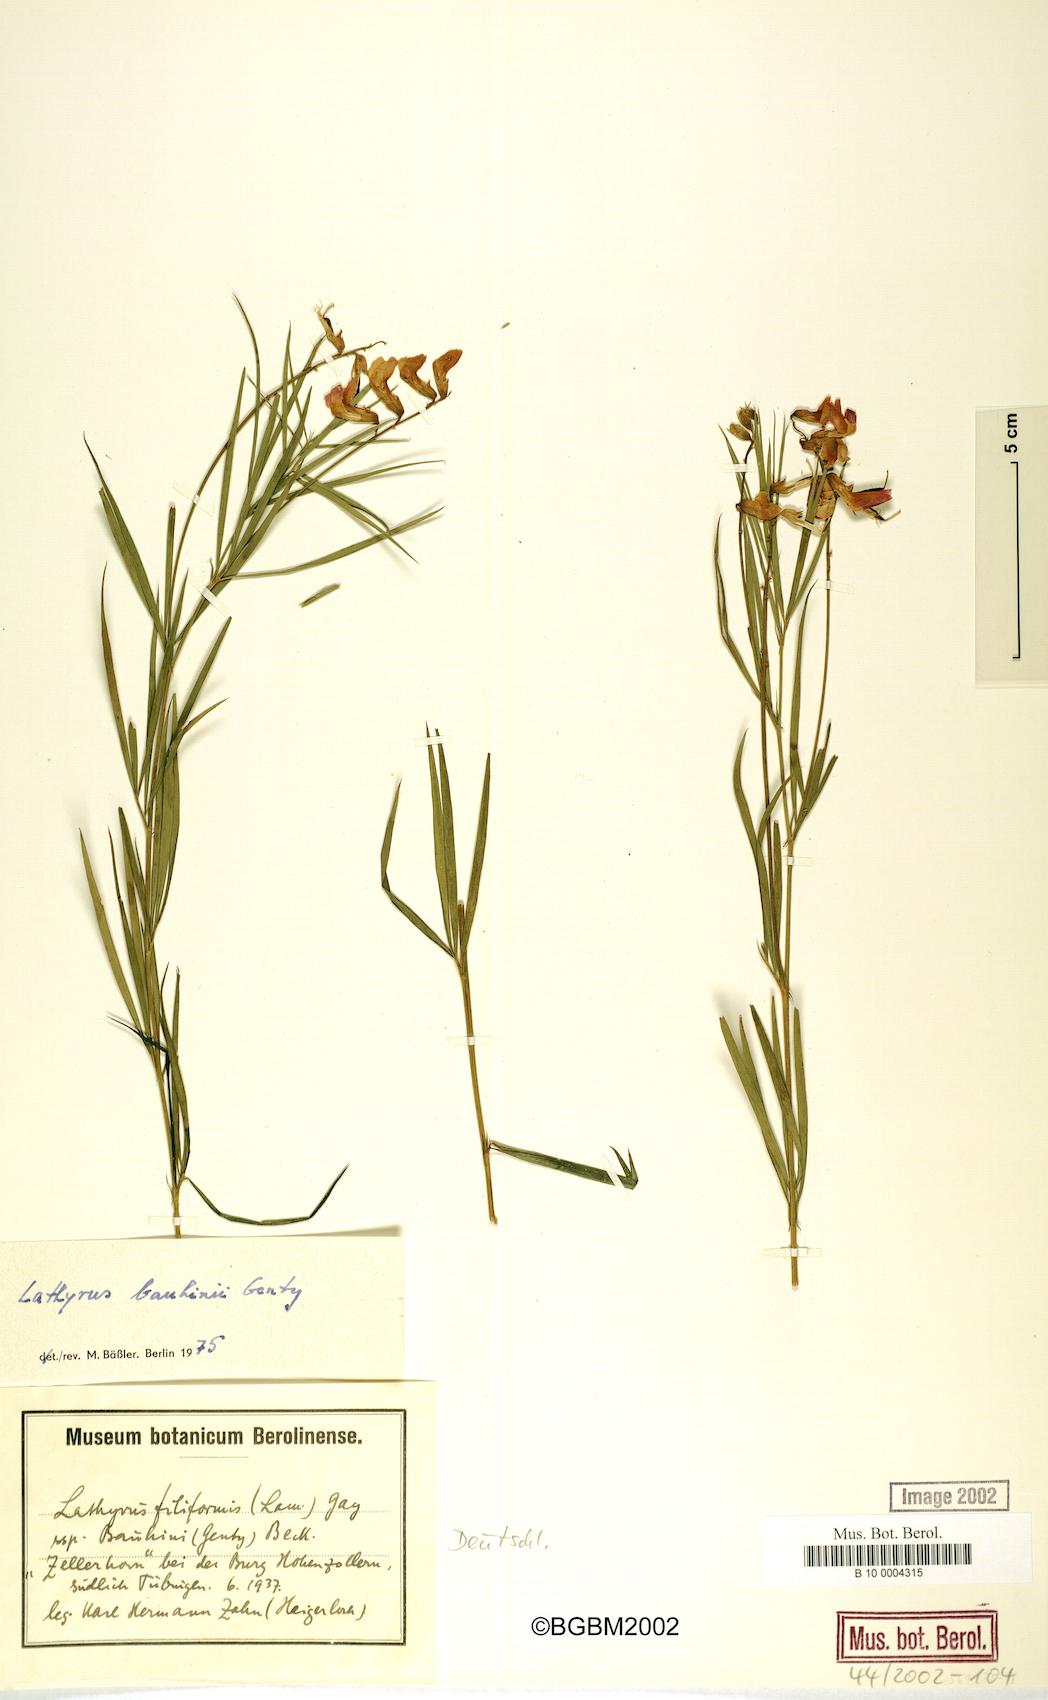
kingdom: Plantae
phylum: Tracheophyta
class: Magnoliopsida
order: Fabales
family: Fabaceae
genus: Lathyrus
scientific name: Lathyrus bauhini
